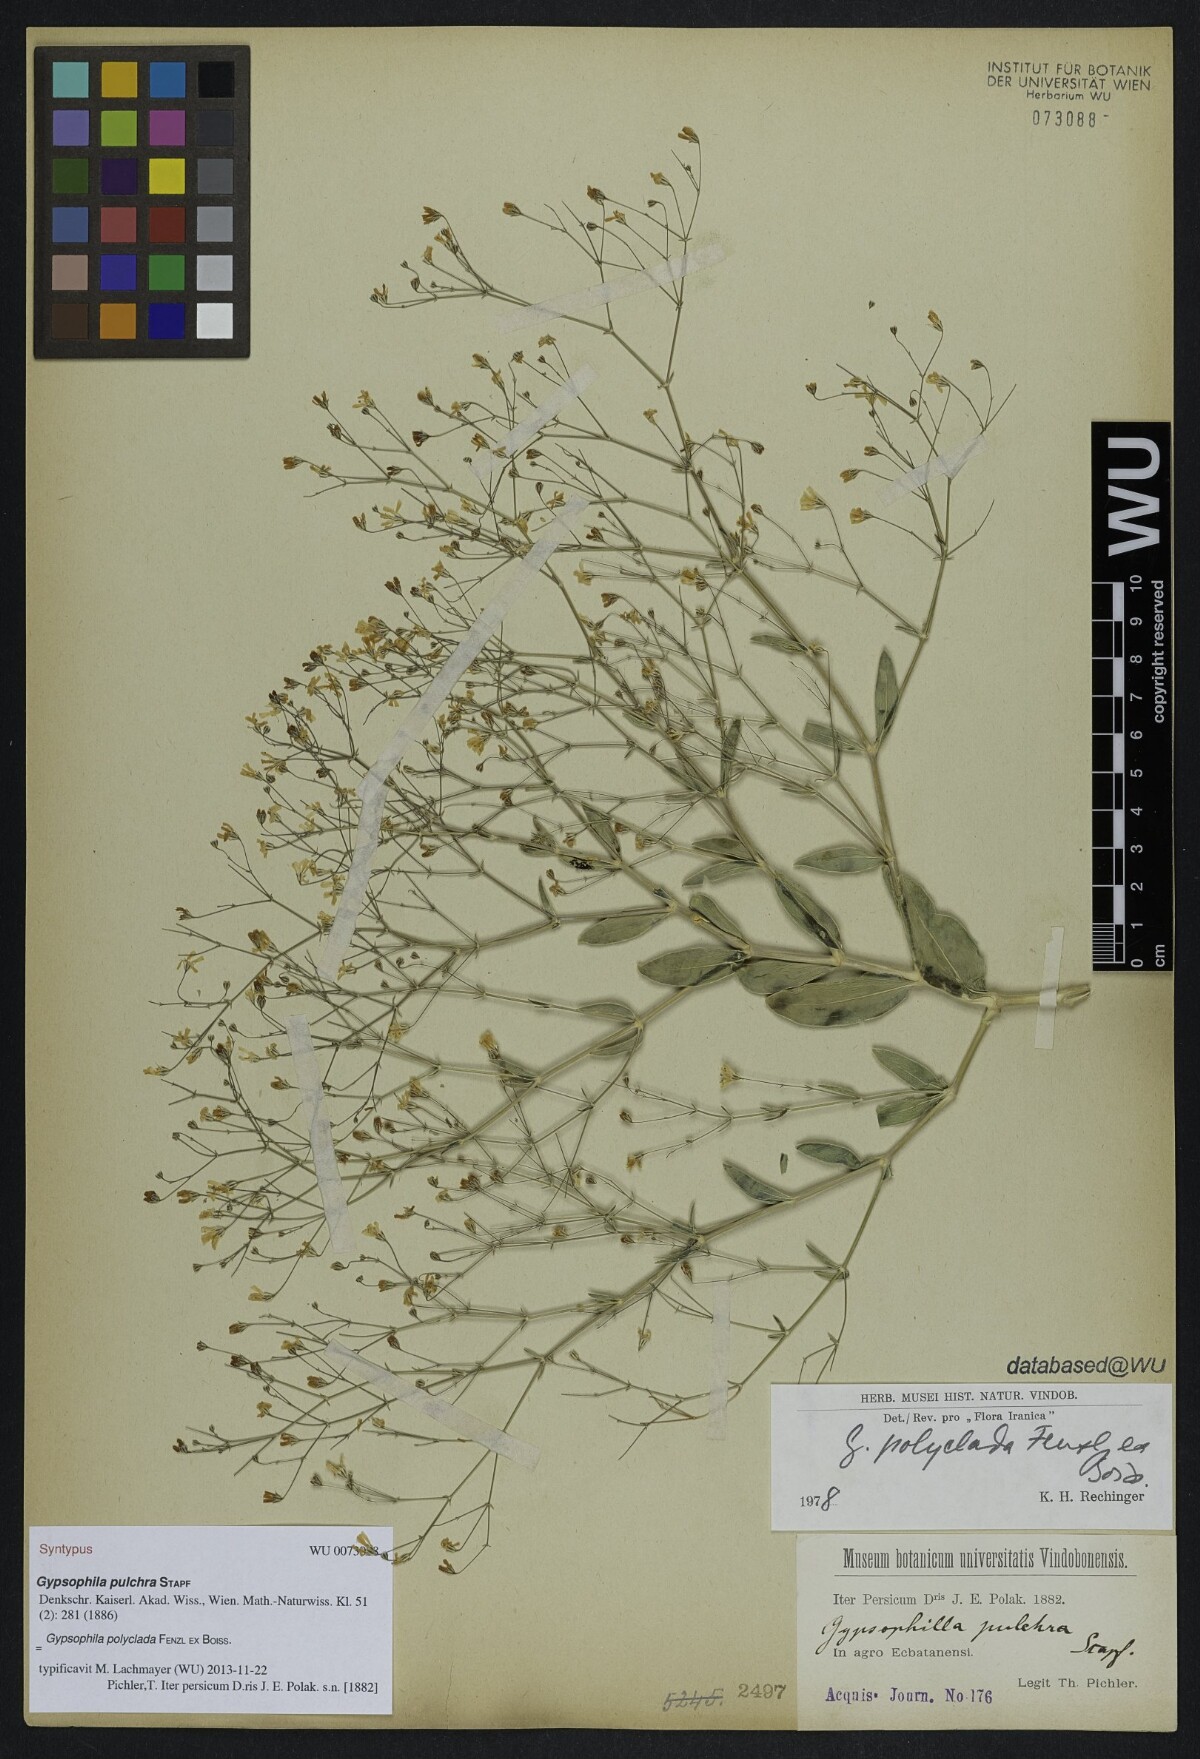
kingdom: Plantae
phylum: Tracheophyta
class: Magnoliopsida
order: Caryophyllales
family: Caryophyllaceae
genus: Gypsophila
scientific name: Gypsophila polyclada
